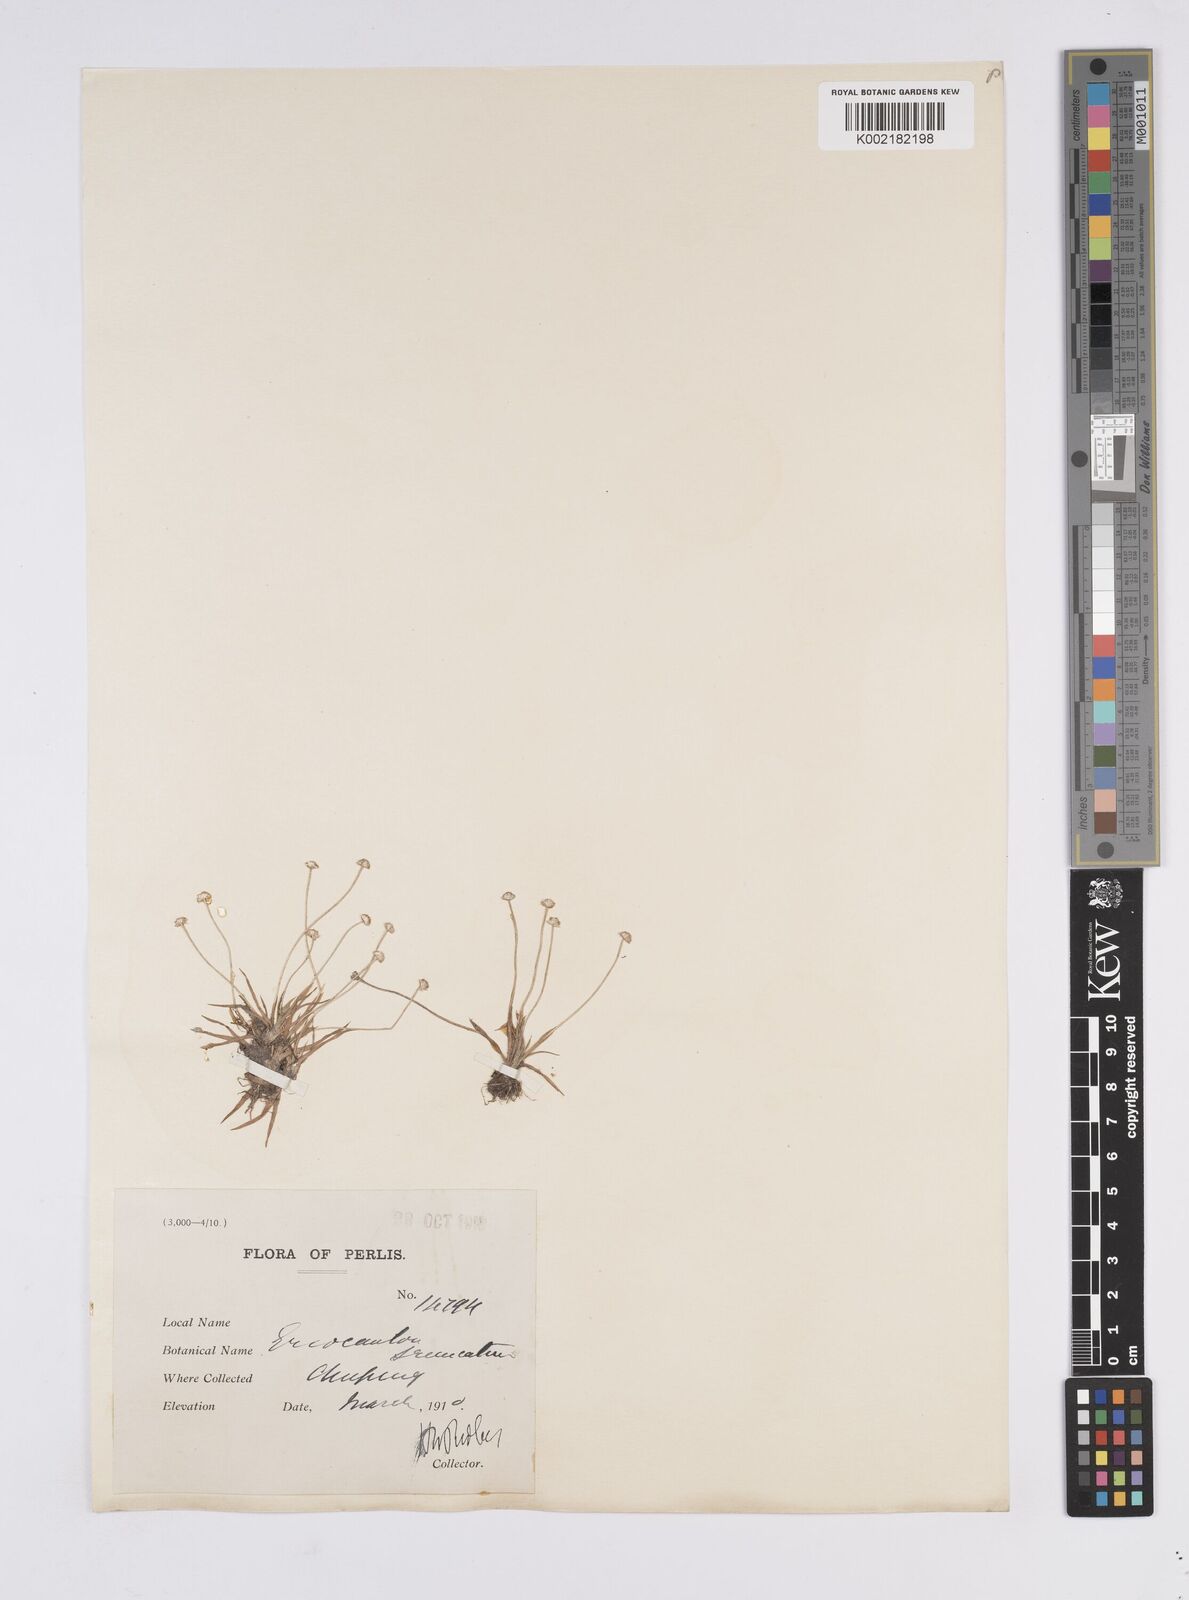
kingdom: Plantae
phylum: Tracheophyta
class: Liliopsida
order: Poales
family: Eriocaulaceae
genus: Eriocaulon
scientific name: Eriocaulon truncatum
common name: Short pipe-wort
